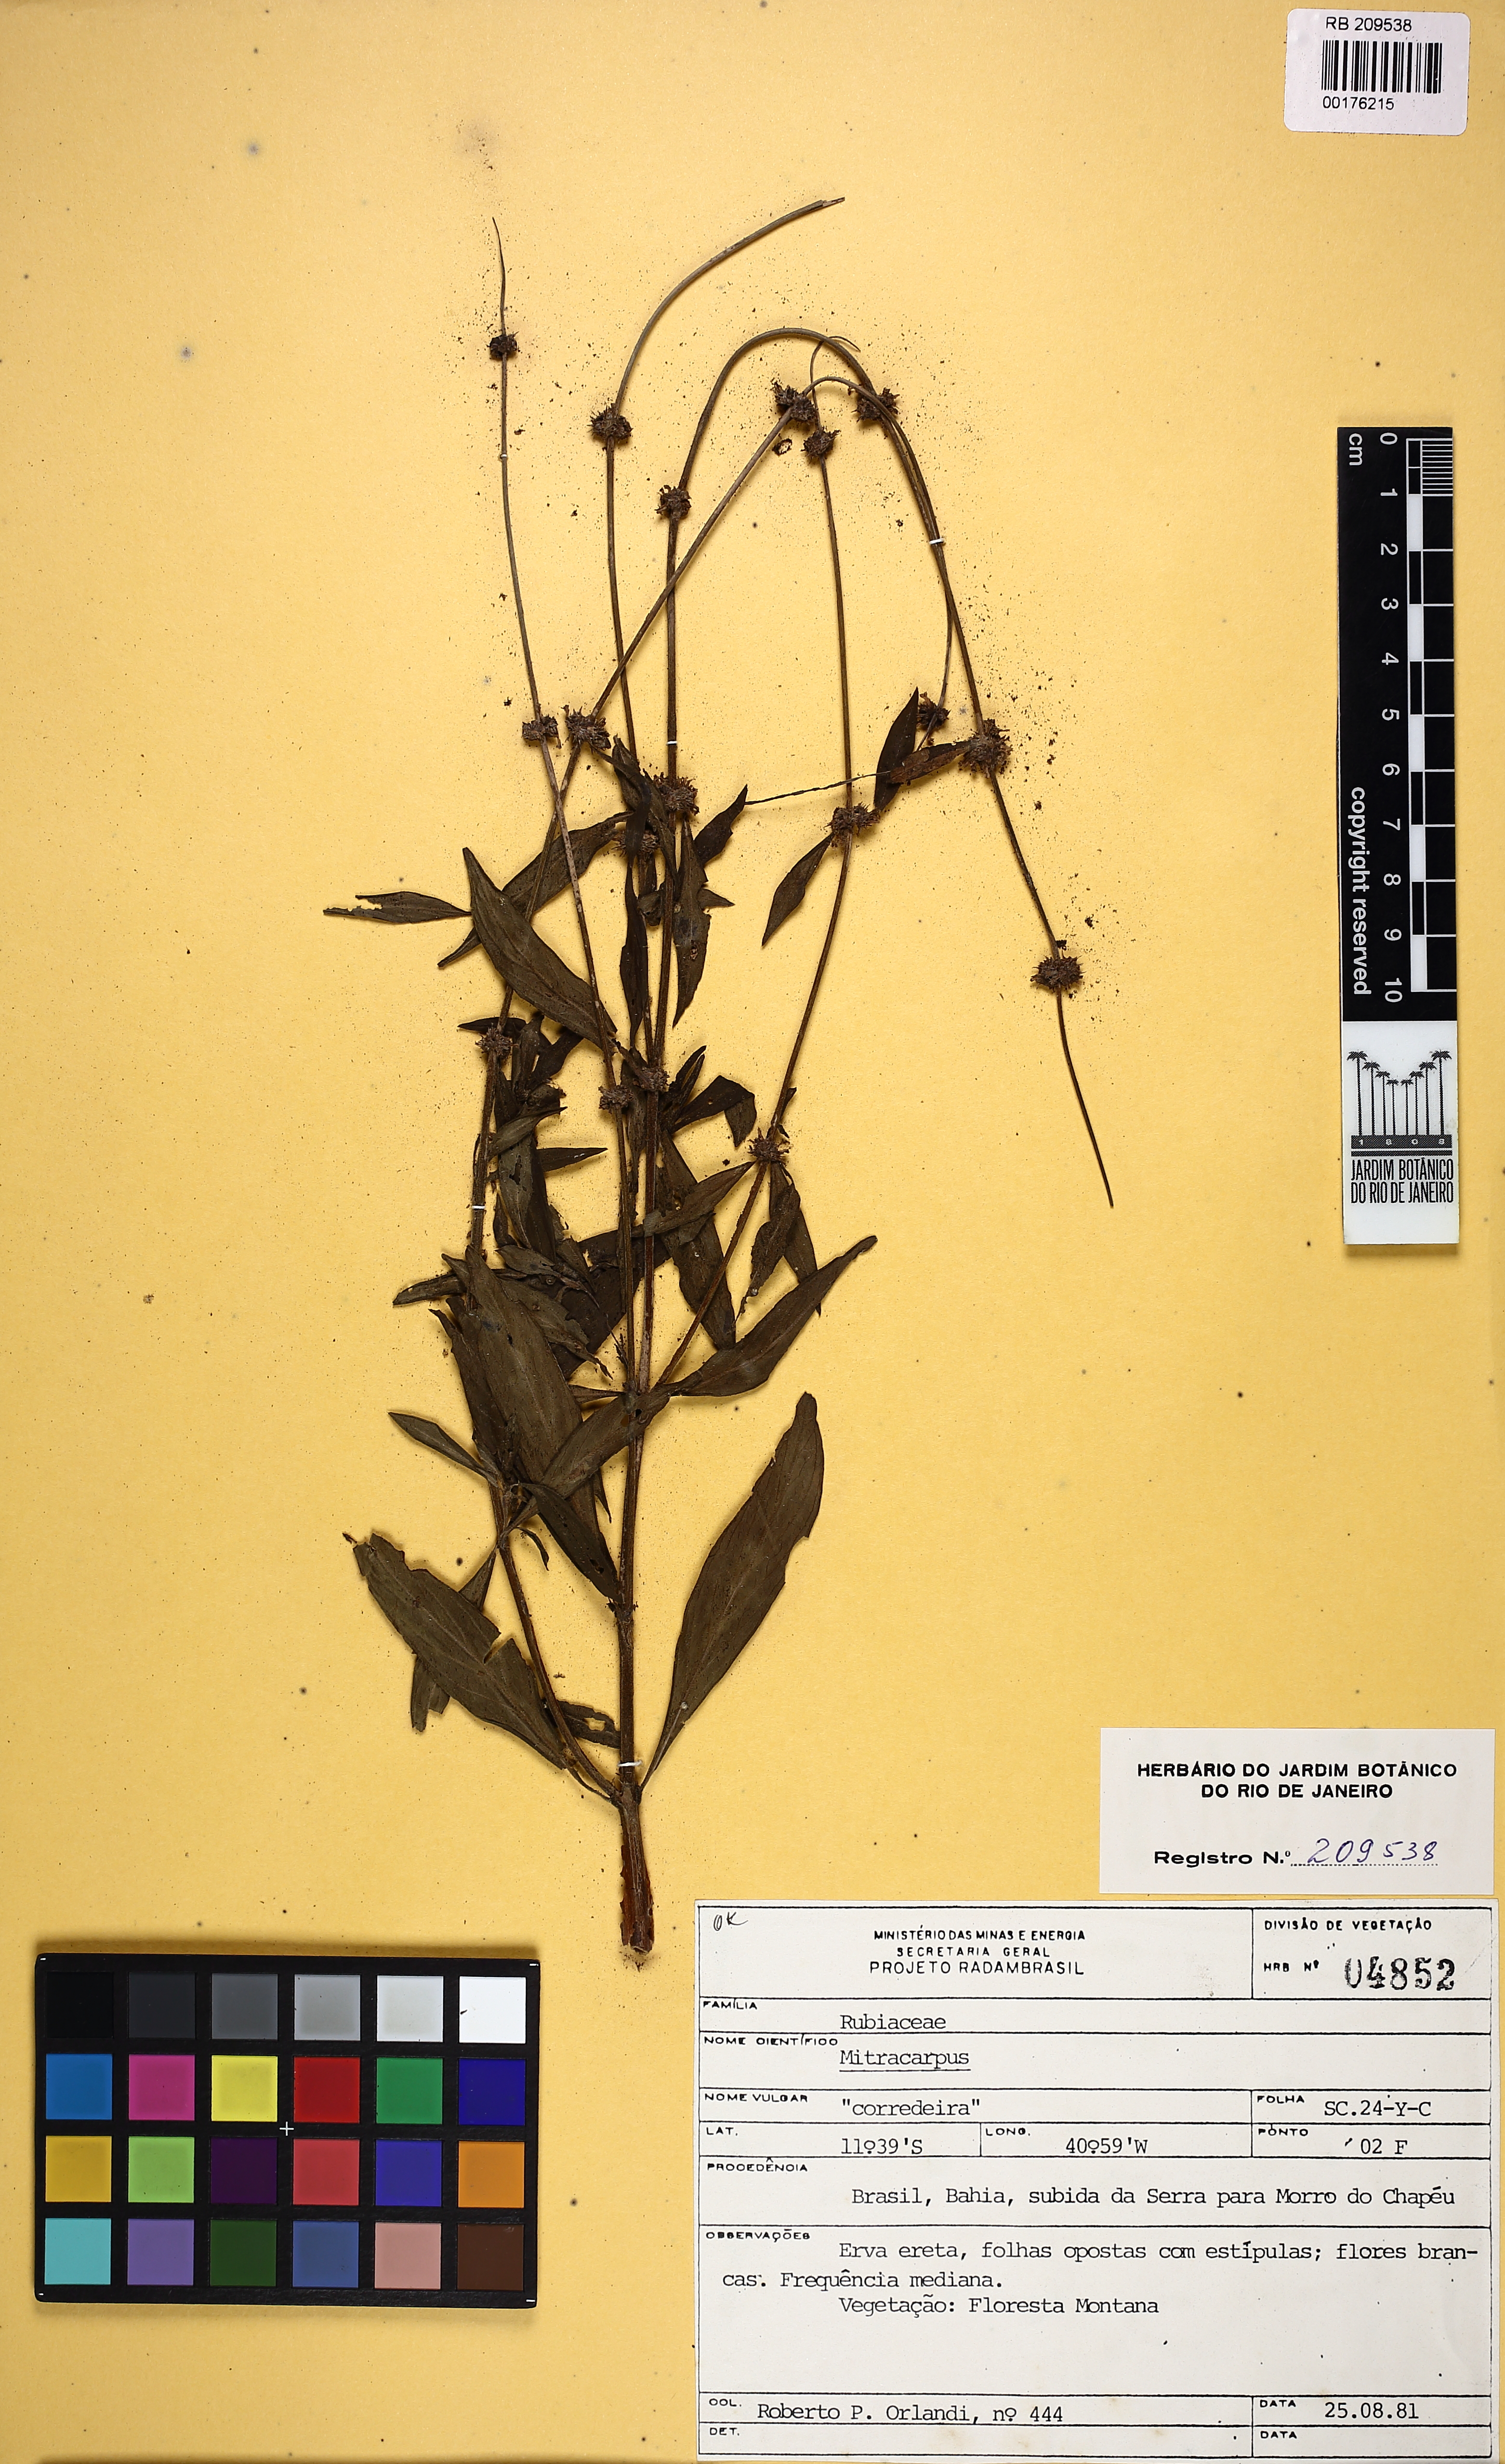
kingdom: Plantae
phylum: Tracheophyta
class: Magnoliopsida
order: Gentianales
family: Rubiaceae
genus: Mitracarpus
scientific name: Mitracarpus robustus
